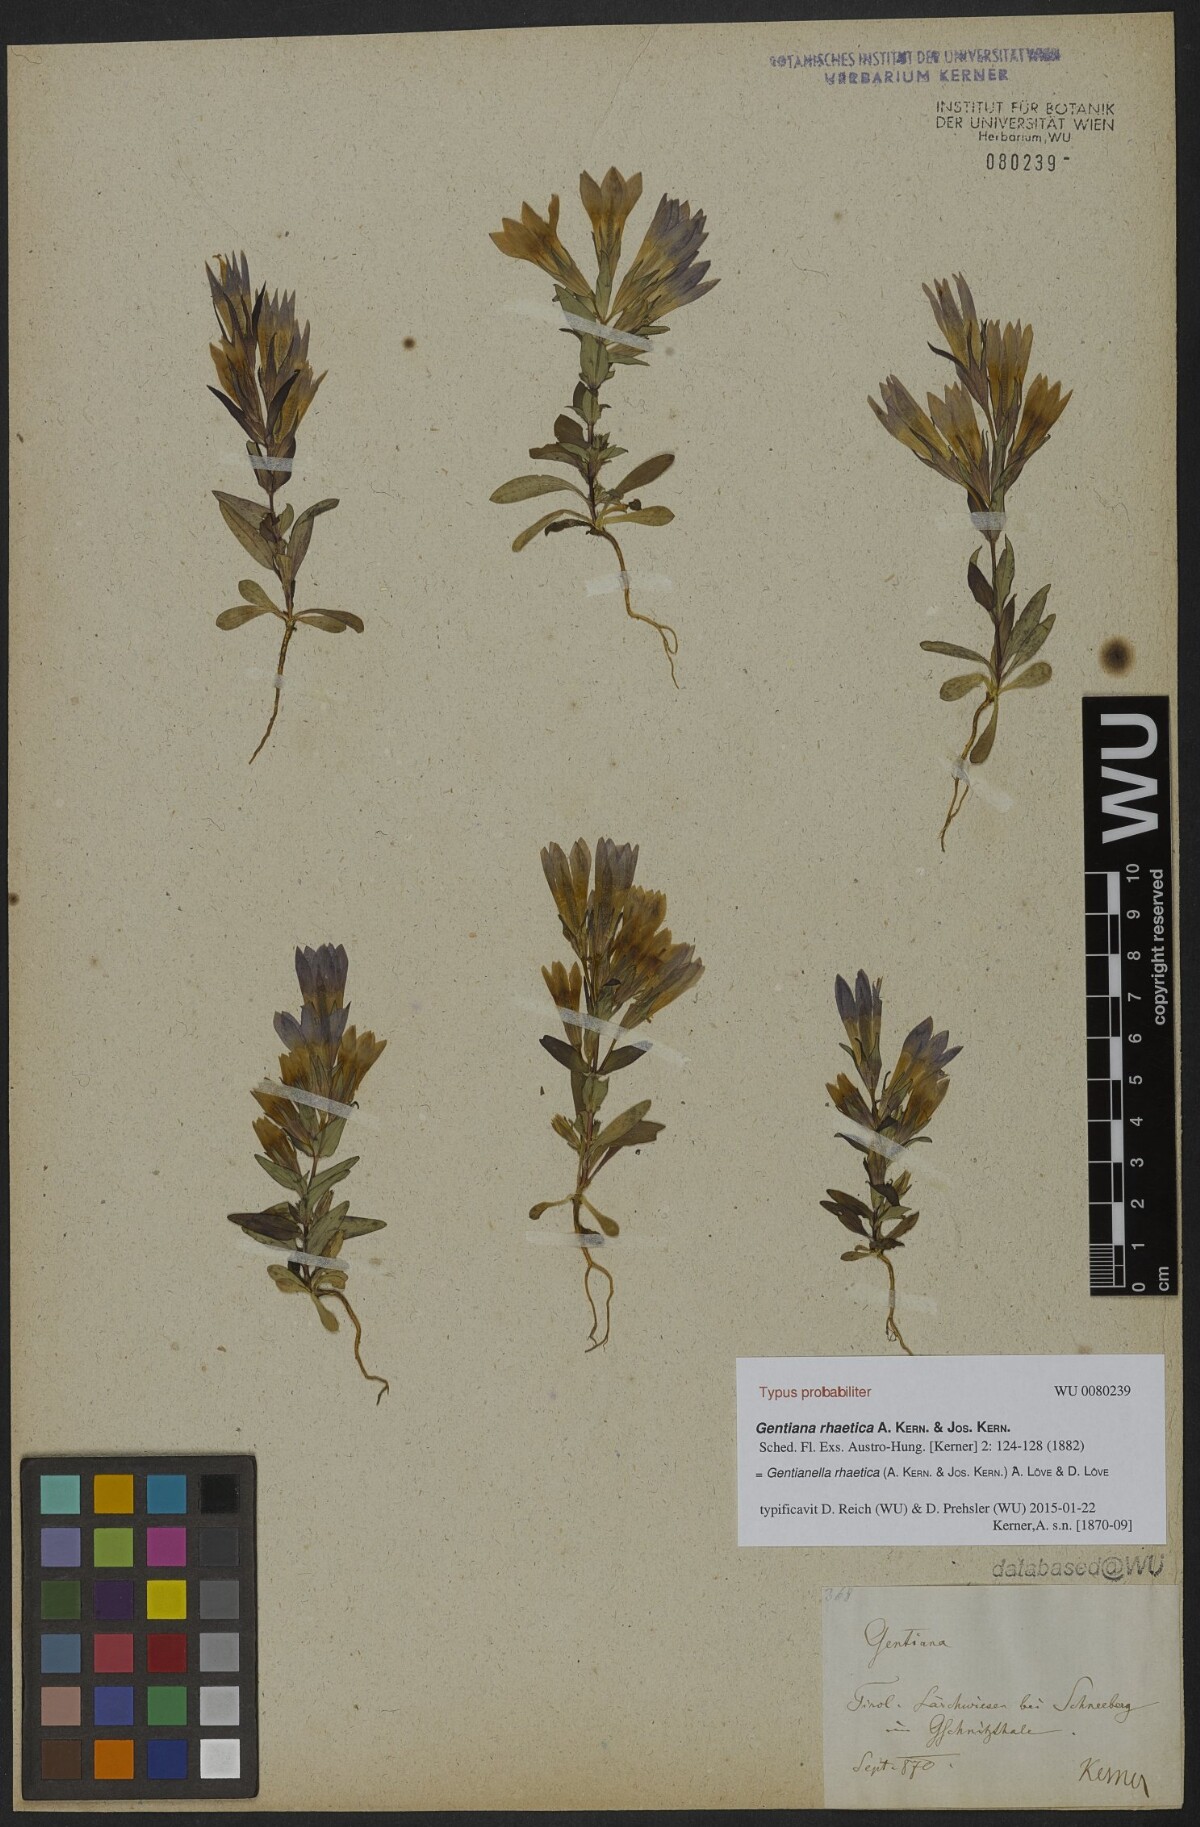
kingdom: Plantae
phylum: Tracheophyta
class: Magnoliopsida
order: Gentianales
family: Gentianaceae
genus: Gentianella
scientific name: Gentianella rhaetica
